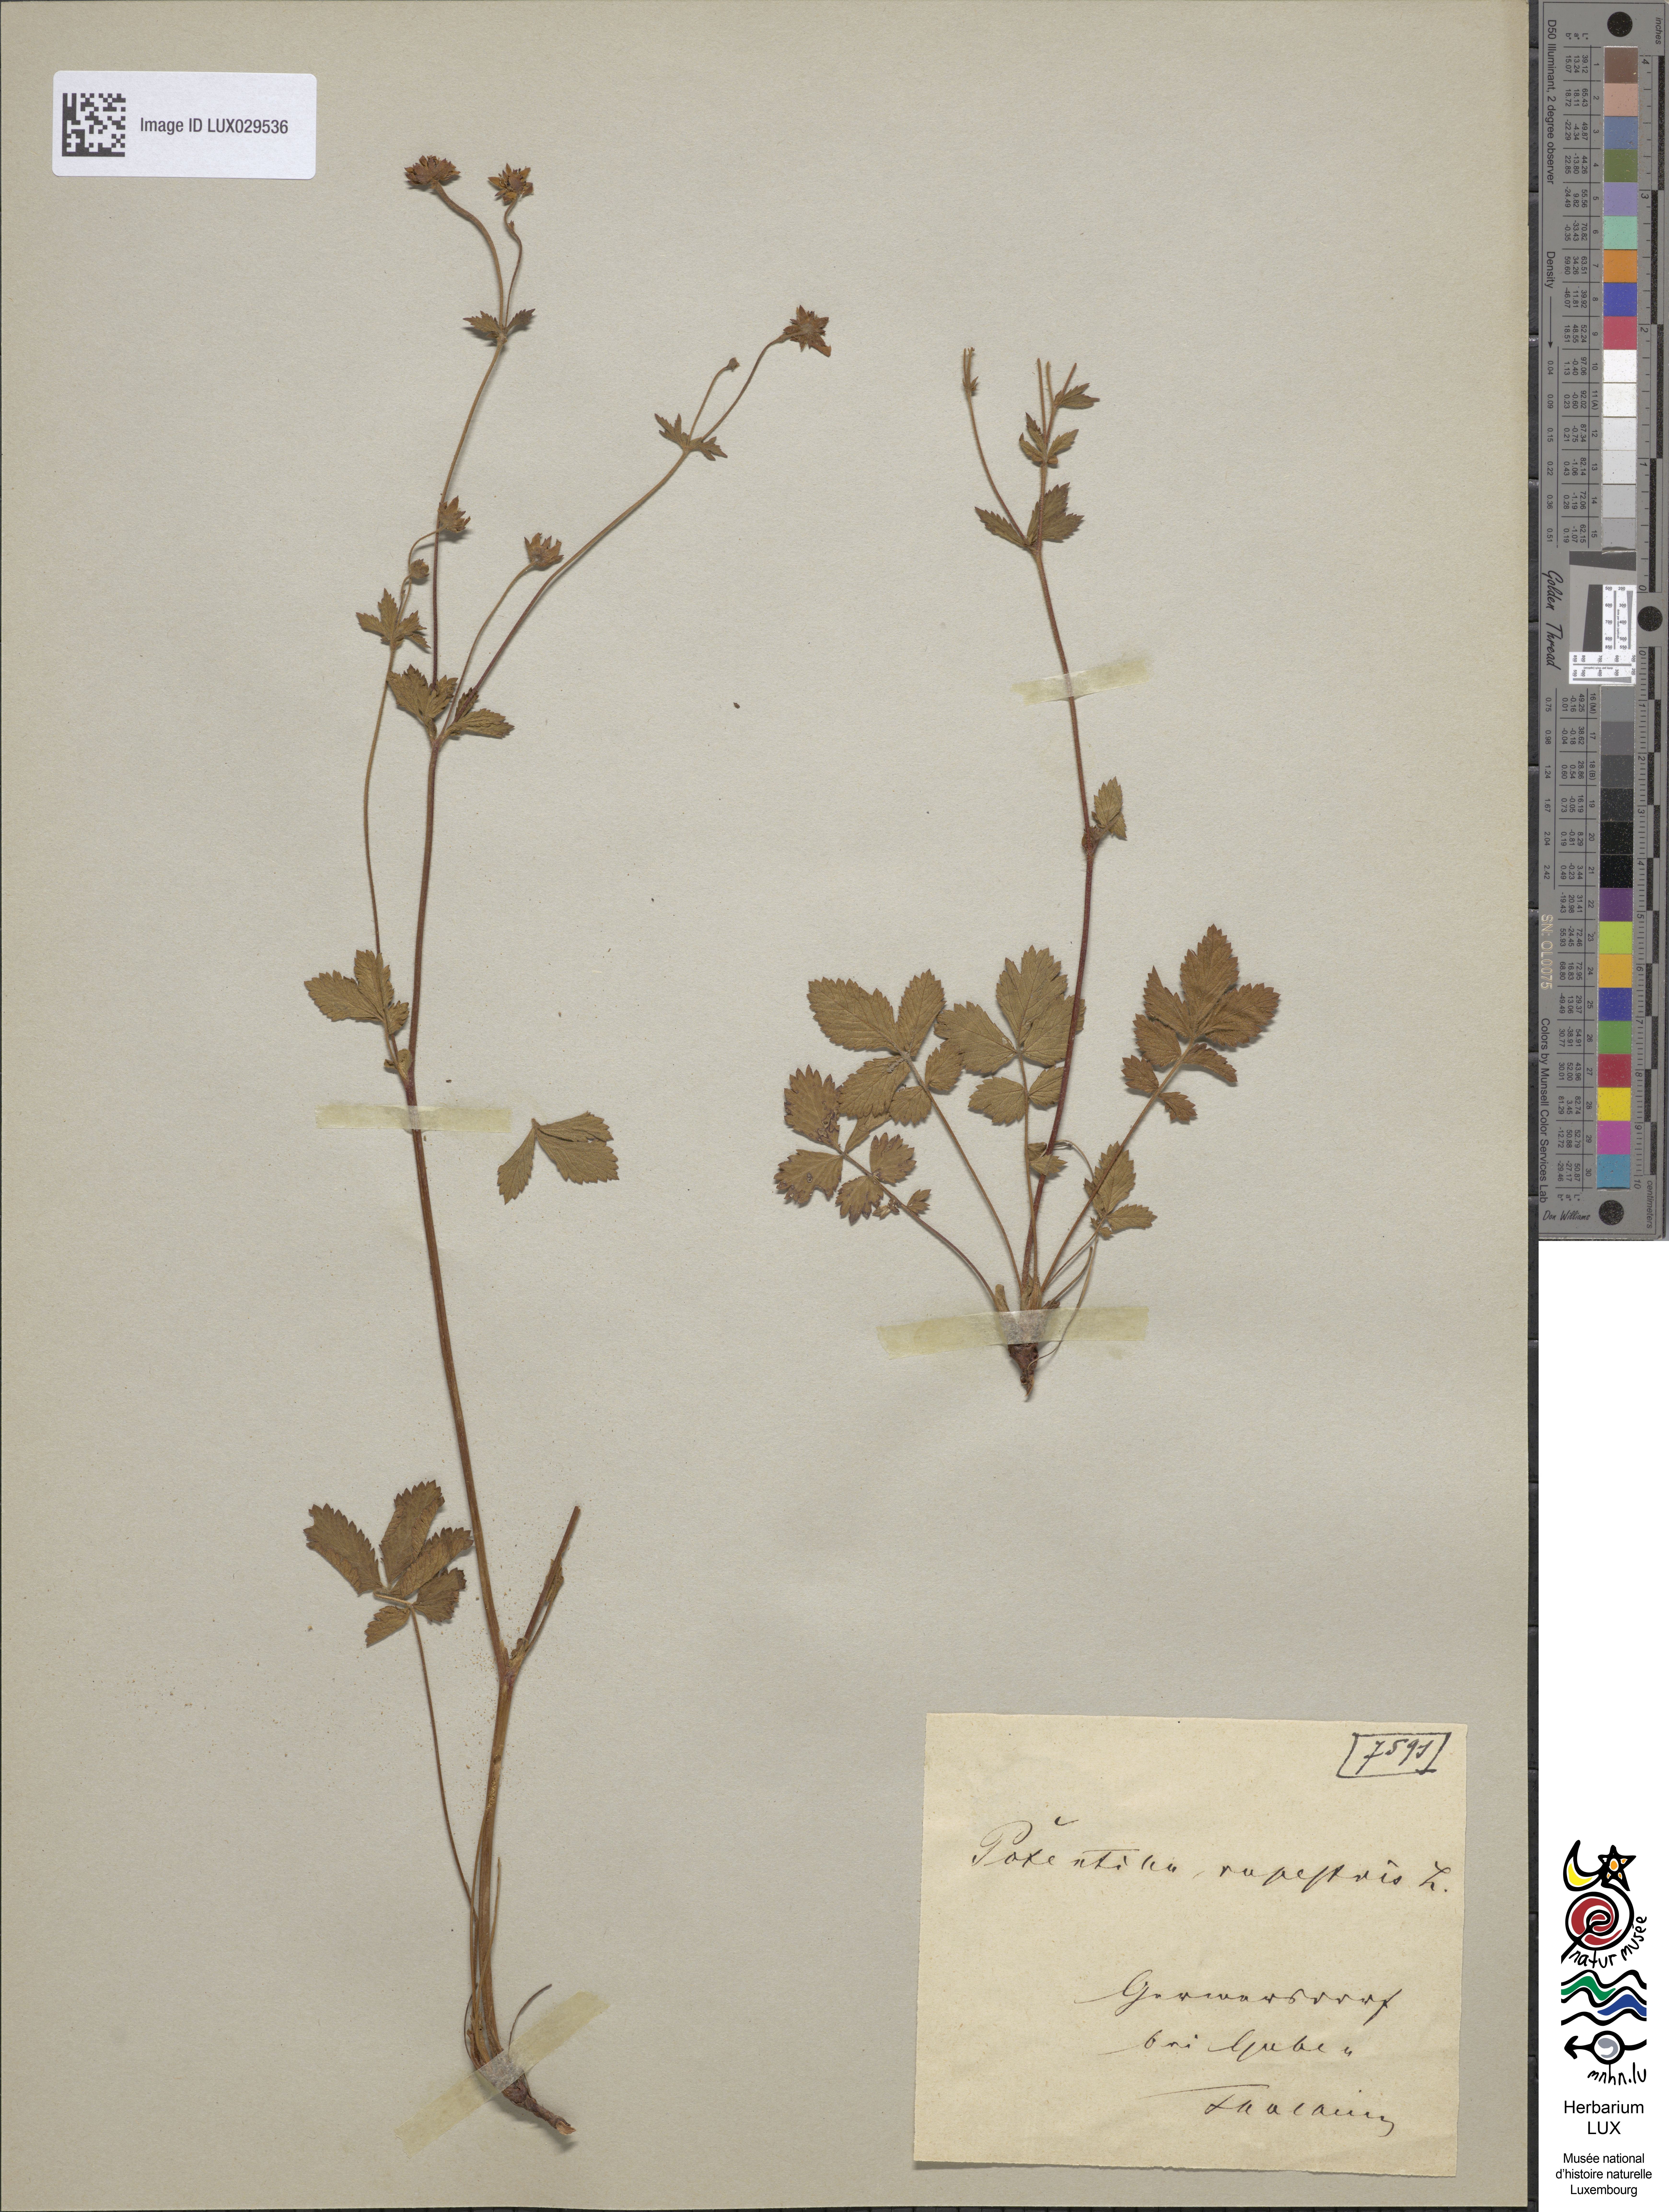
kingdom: Plantae
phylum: Tracheophyta
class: Magnoliopsida
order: Rosales
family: Rosaceae
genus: Drymocallis
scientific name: Drymocallis rupestris
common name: Rock cinquefoil
